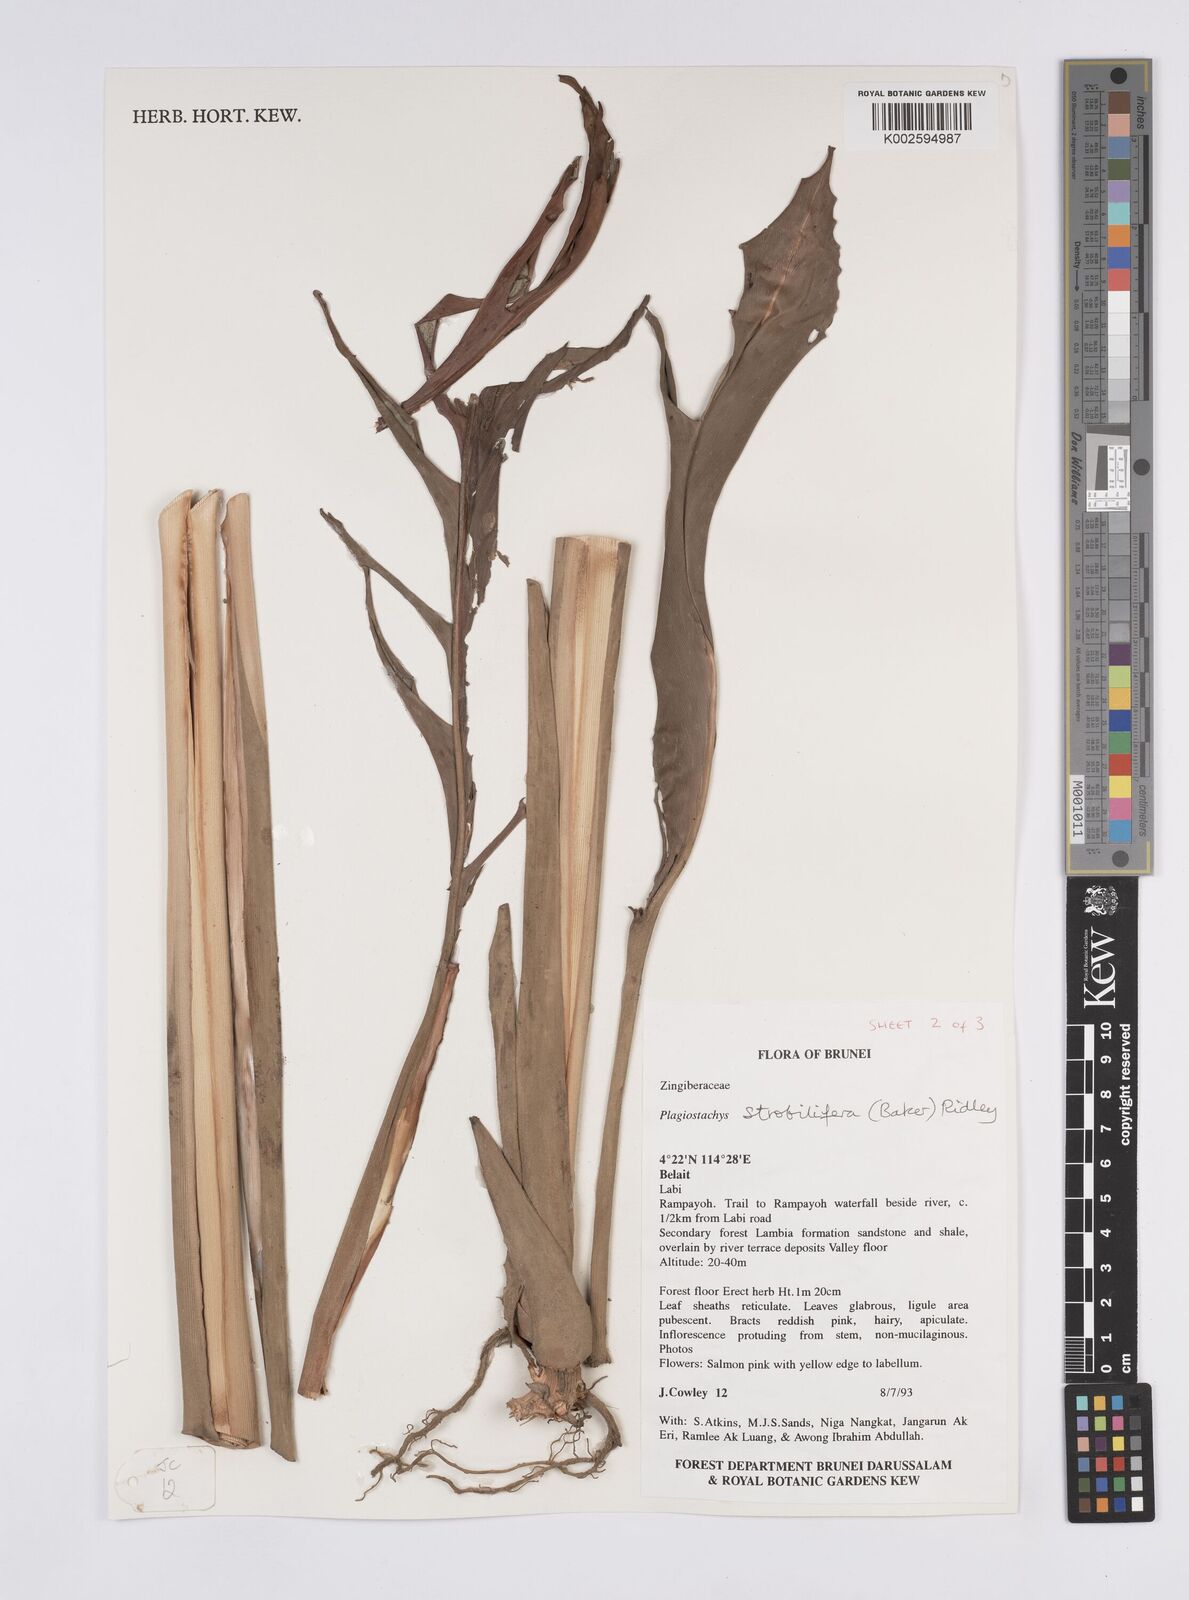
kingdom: Plantae
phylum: Tracheophyta
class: Liliopsida
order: Zingiberales
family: Zingiberaceae
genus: Plagiostachys
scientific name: Plagiostachys strobilifera
